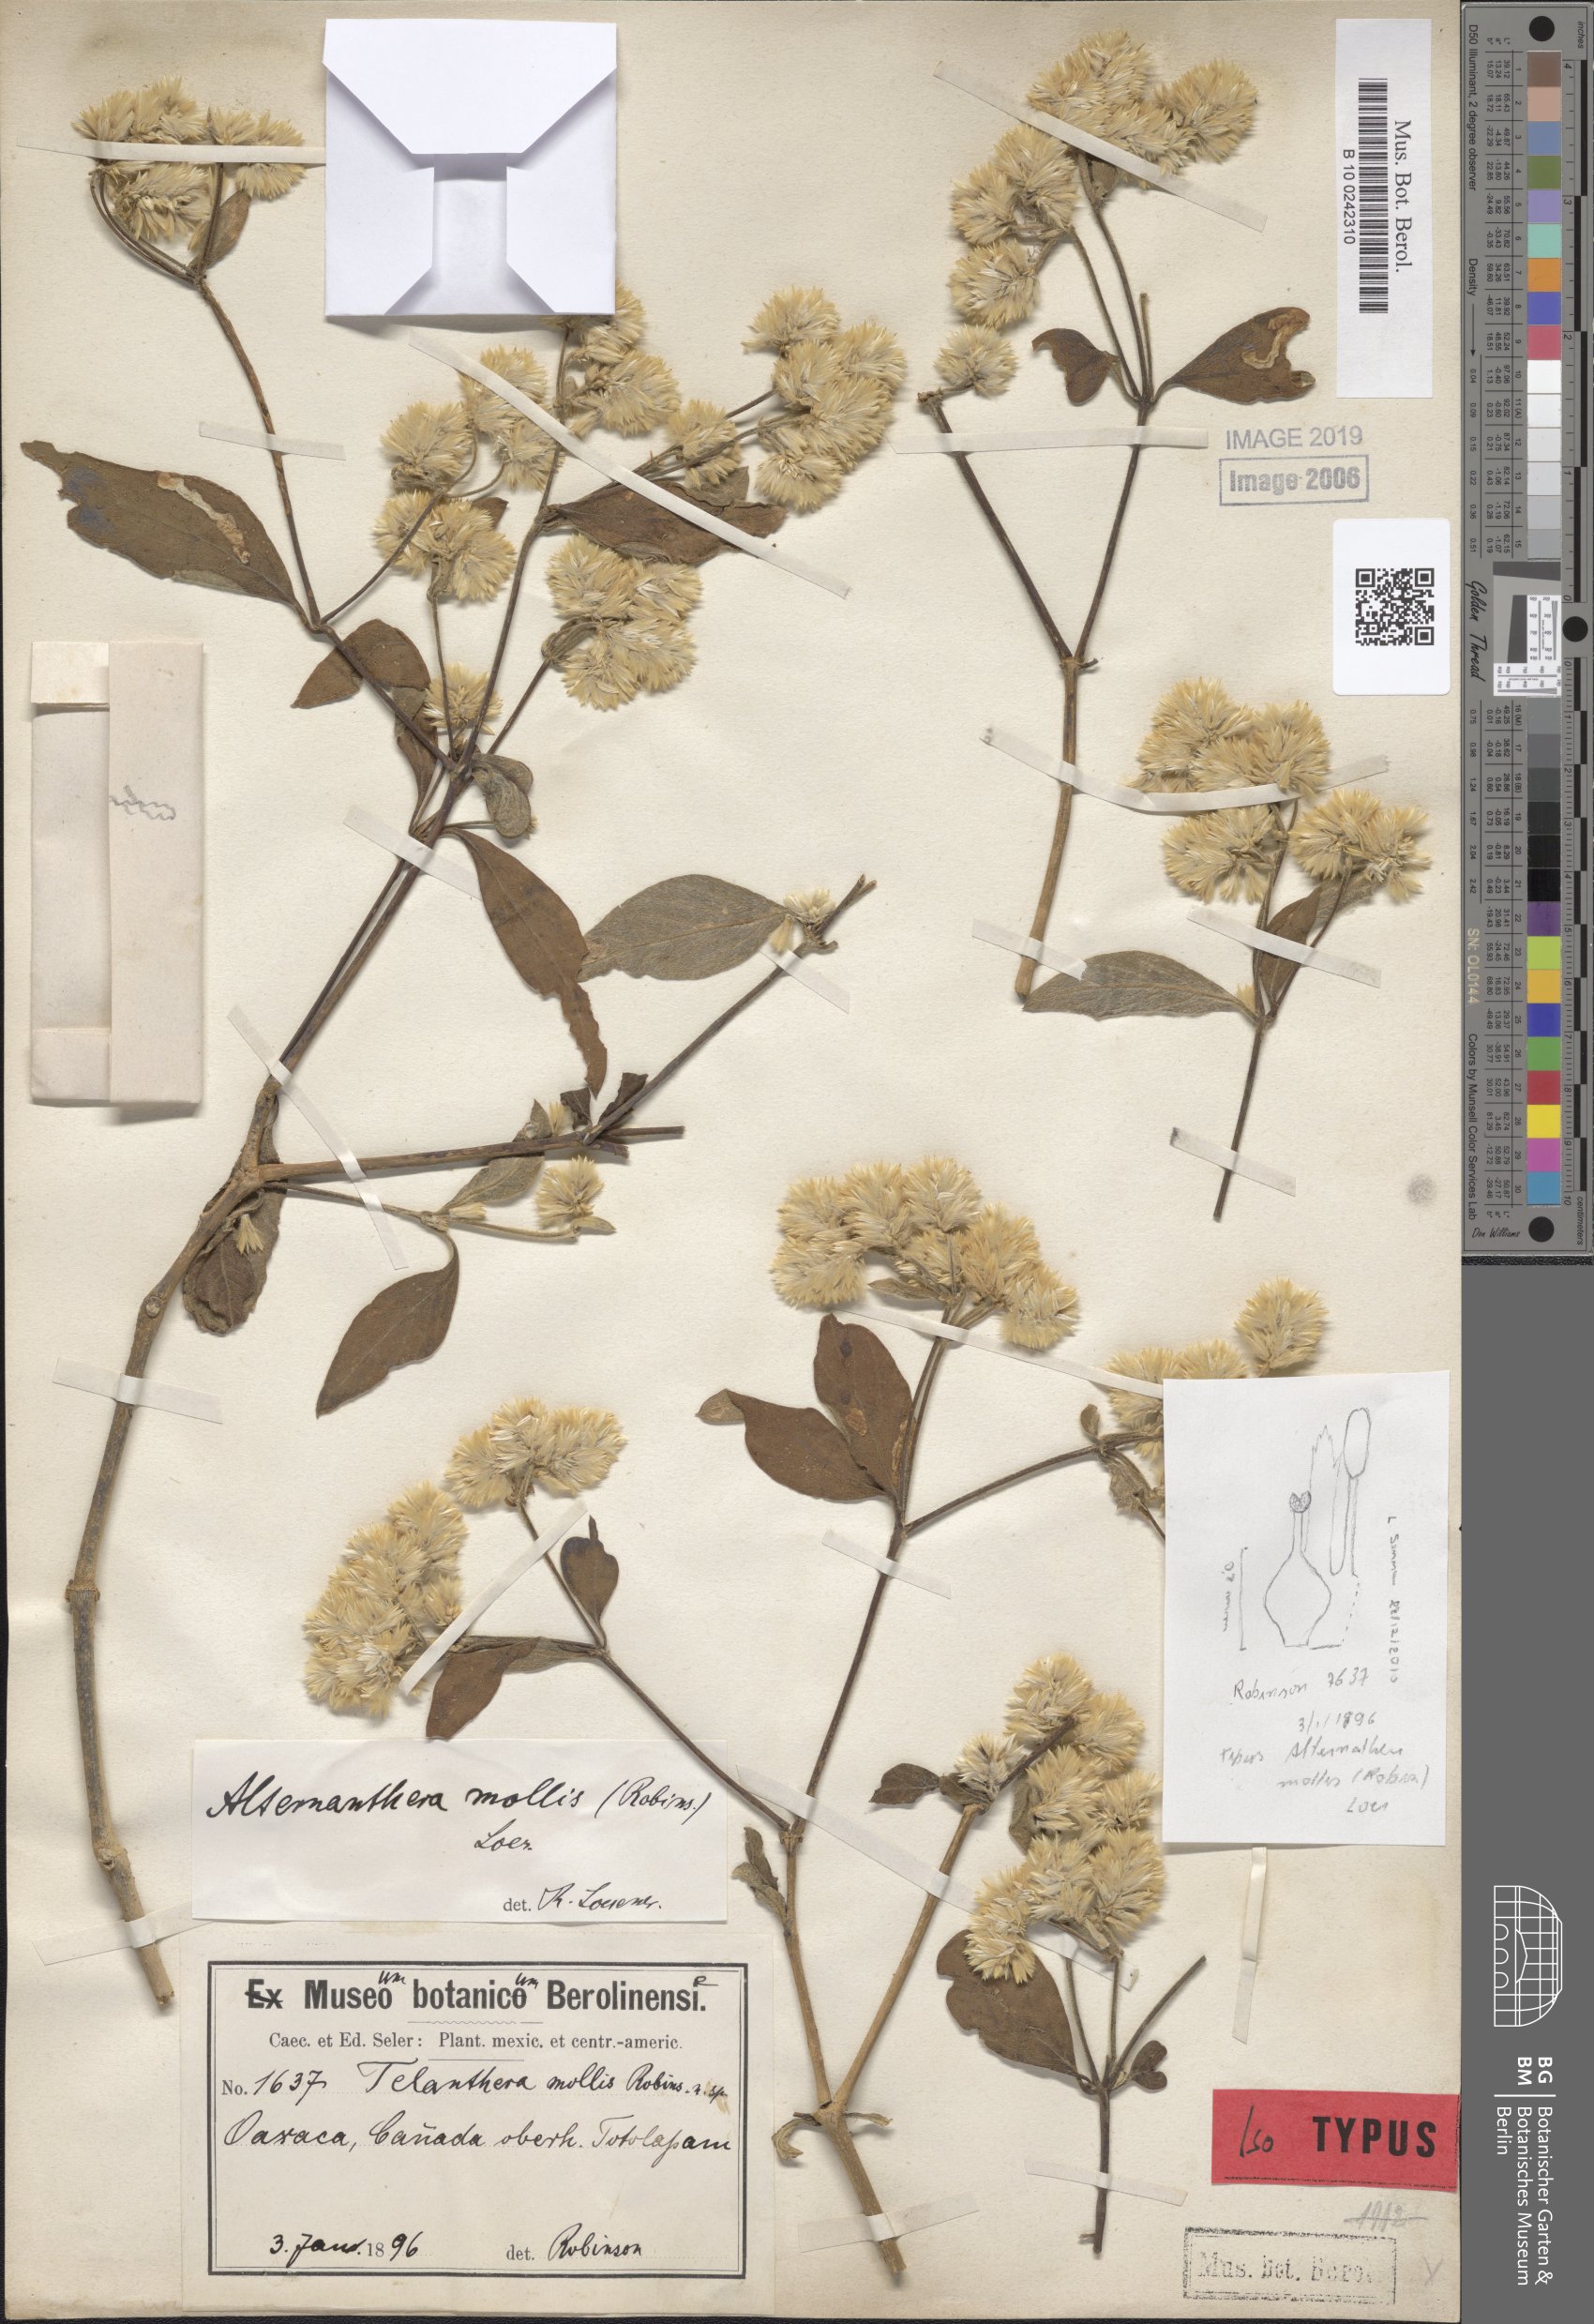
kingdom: Plantae
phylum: Tracheophyta
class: Magnoliopsida
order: Caryophyllales
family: Amaranthaceae
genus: Alternanthera
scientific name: Alternanthera pycnantha
